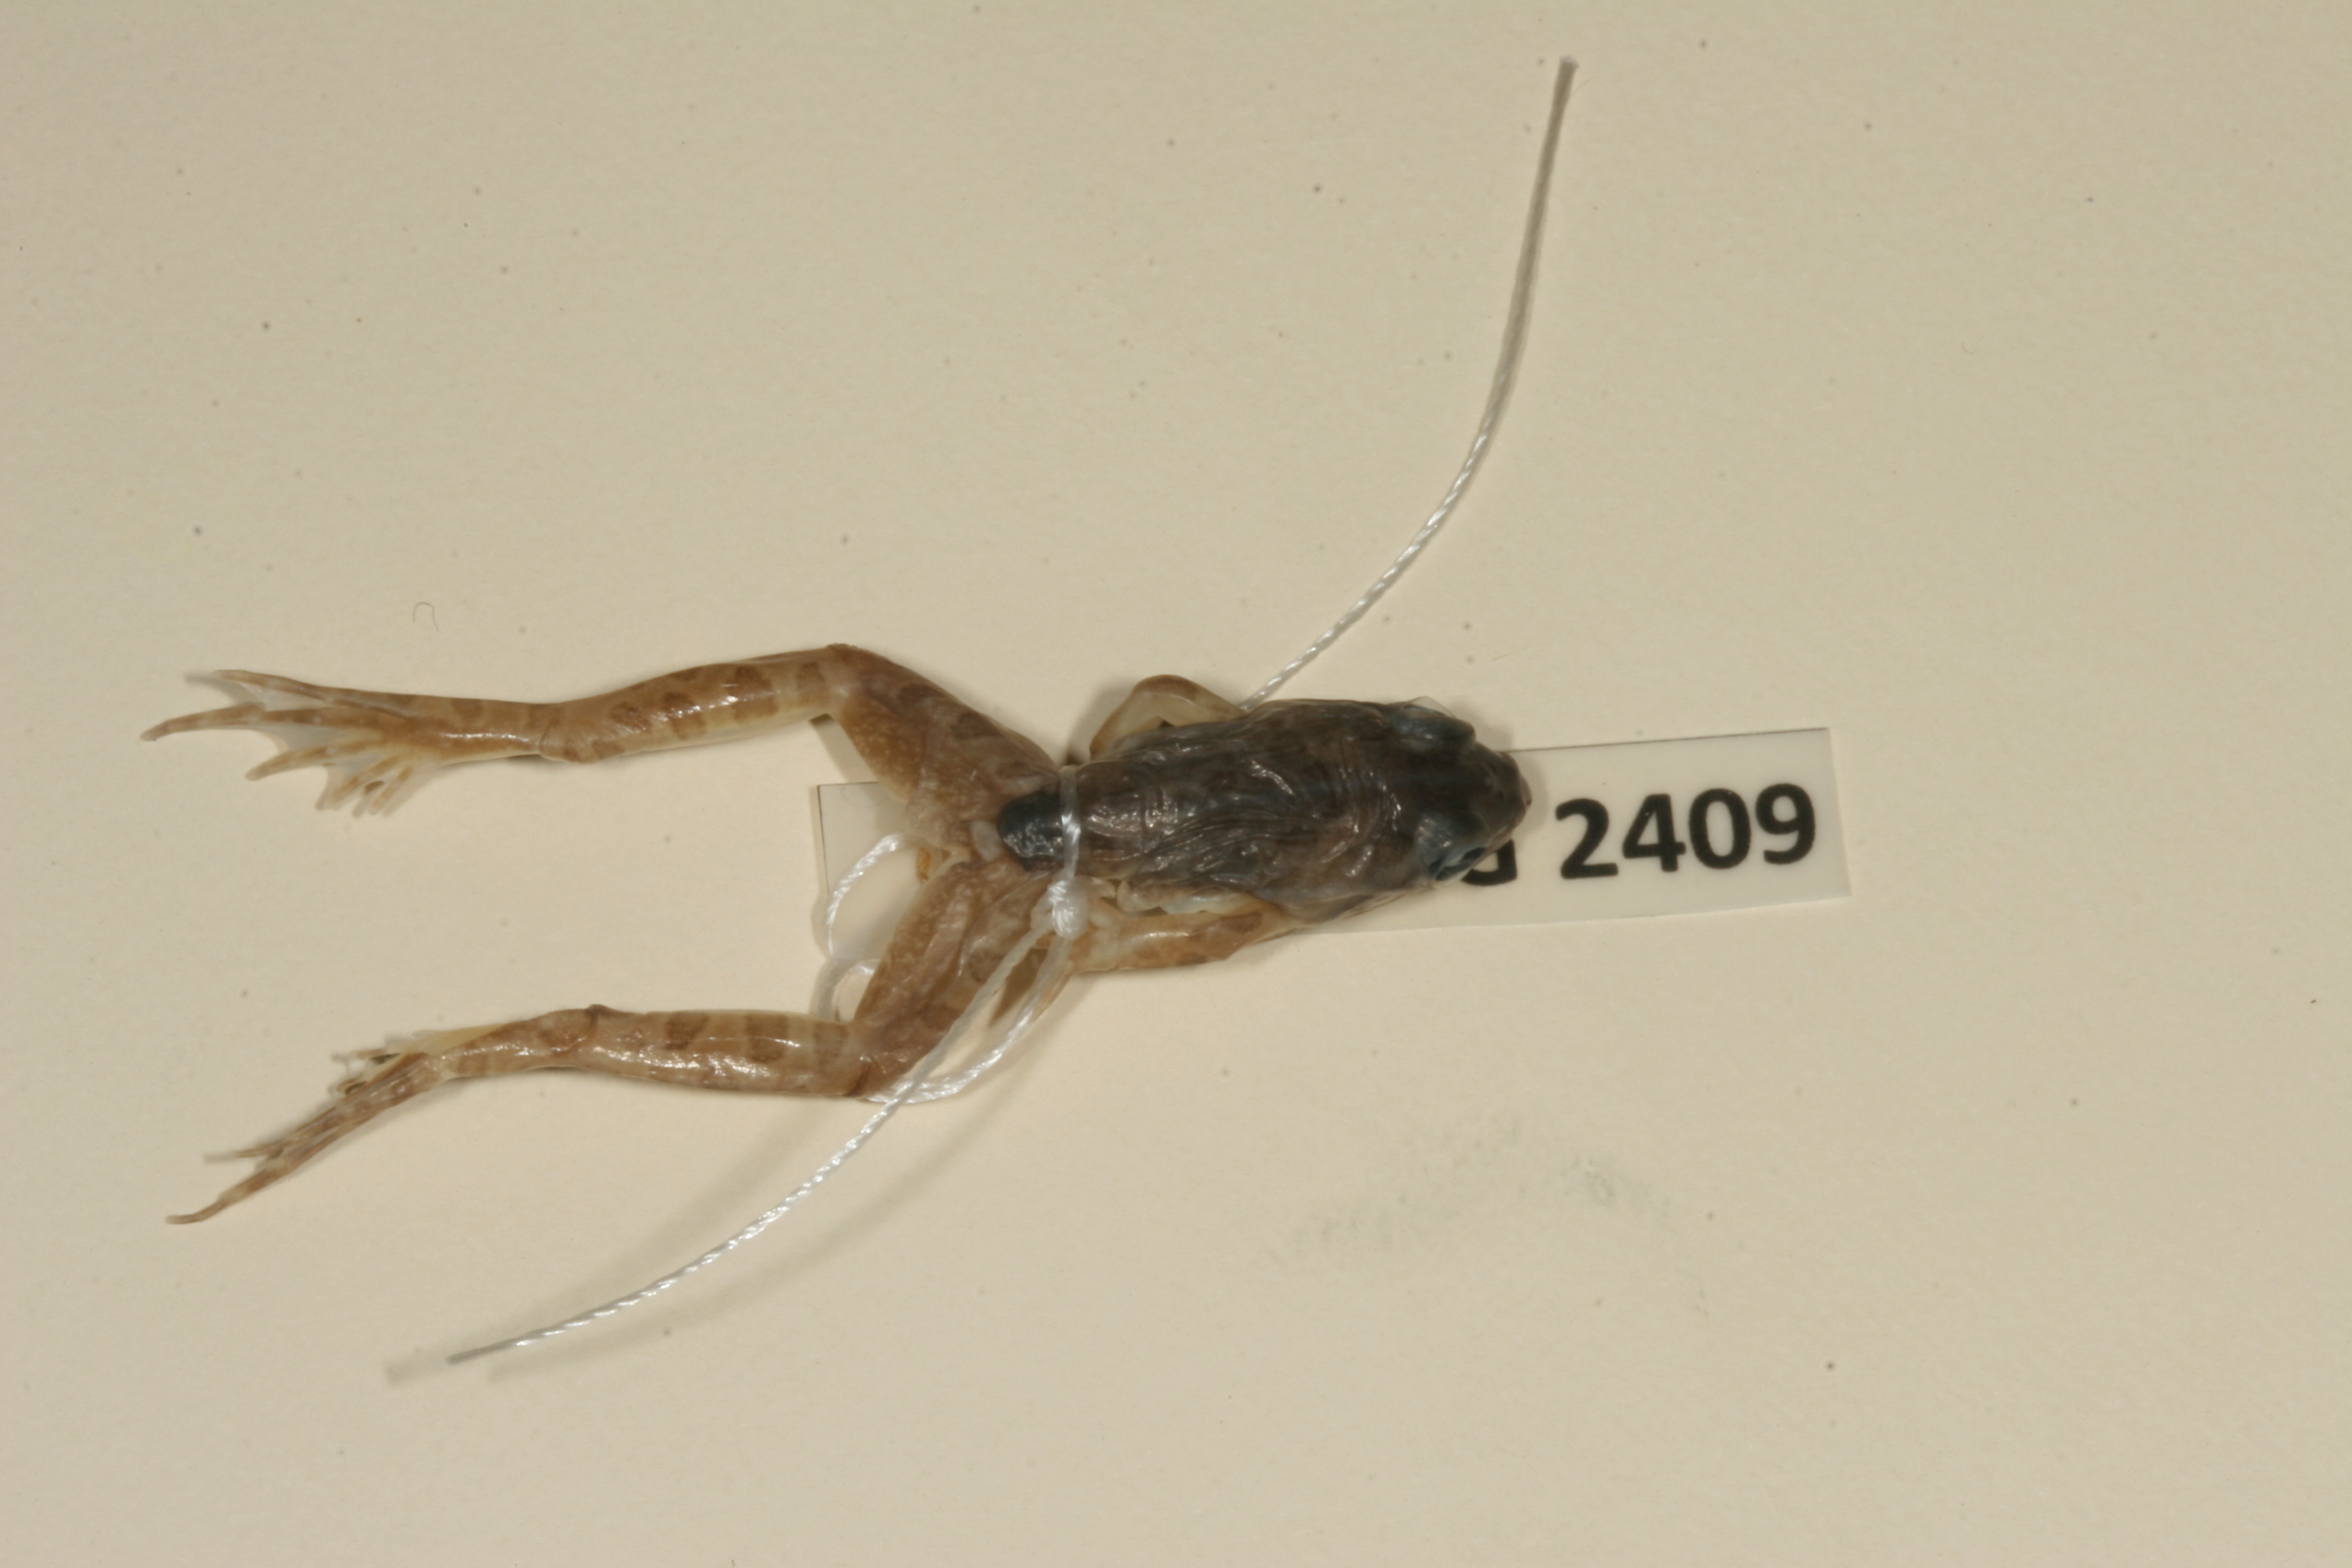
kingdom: Animalia
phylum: Chordata
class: Amphibia
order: Anura
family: Pyxicephalidae
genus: Amietia
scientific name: Amietia delalandii
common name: Delalande's river frog
